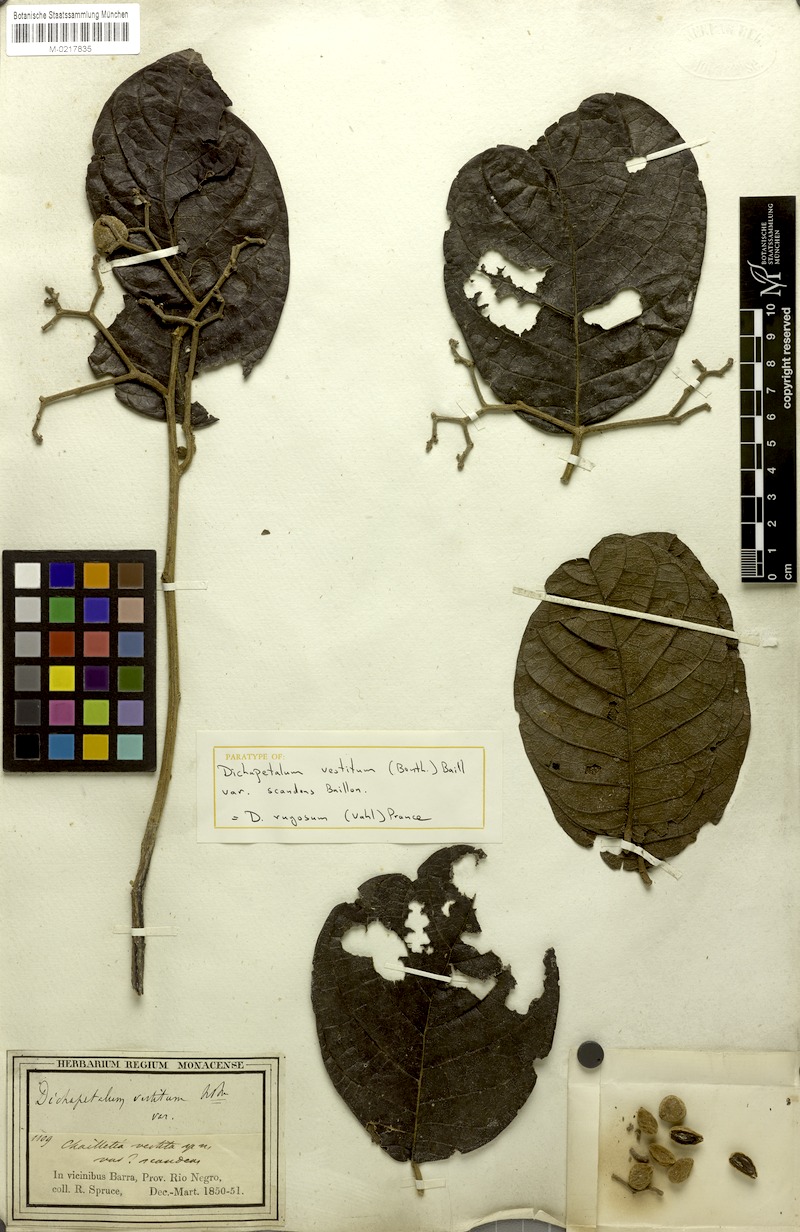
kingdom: Plantae
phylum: Tracheophyta
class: Magnoliopsida
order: Malpighiales
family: Dichapetalaceae
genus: Dichapetalum
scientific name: Dichapetalum rugosum
